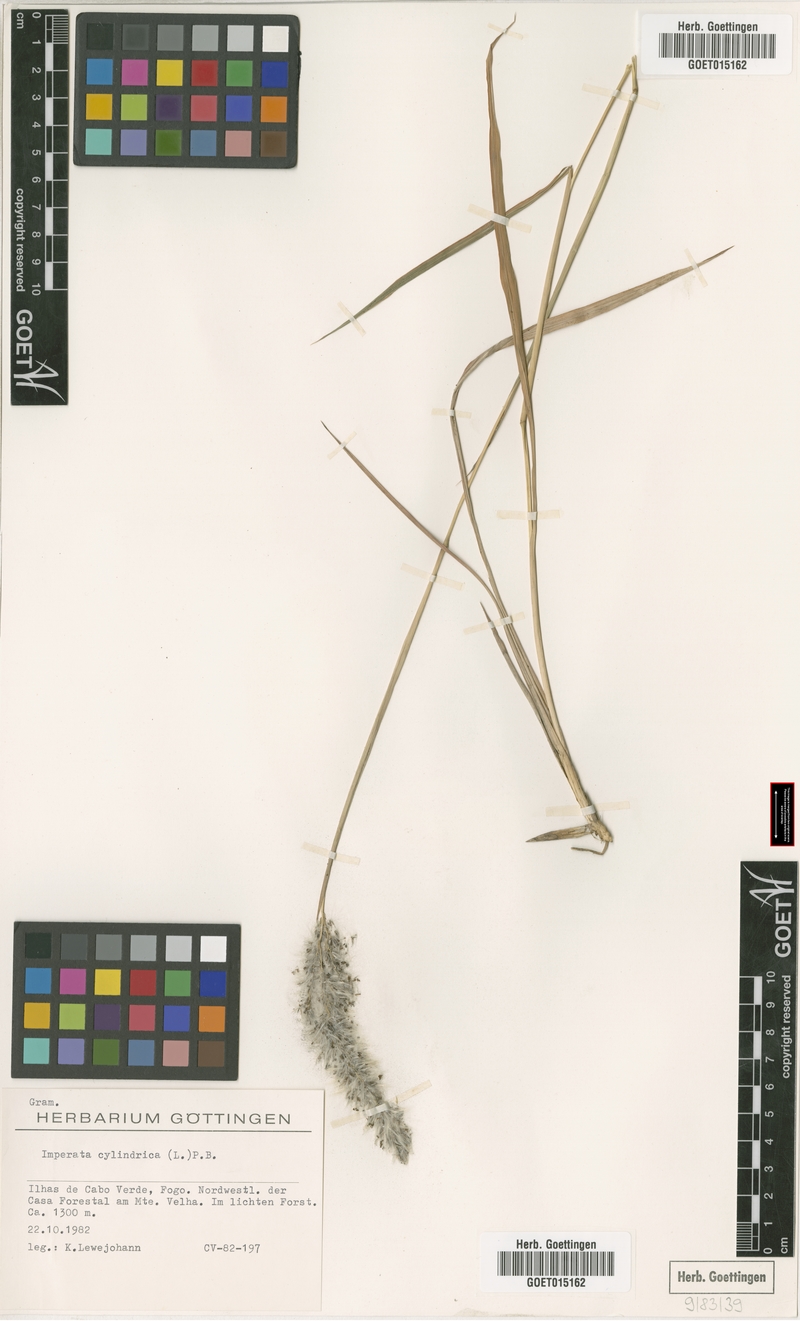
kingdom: Plantae
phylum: Tracheophyta
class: Liliopsida
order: Poales
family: Poaceae
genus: Imperata
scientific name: Imperata cylindrica
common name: Cogongrass
